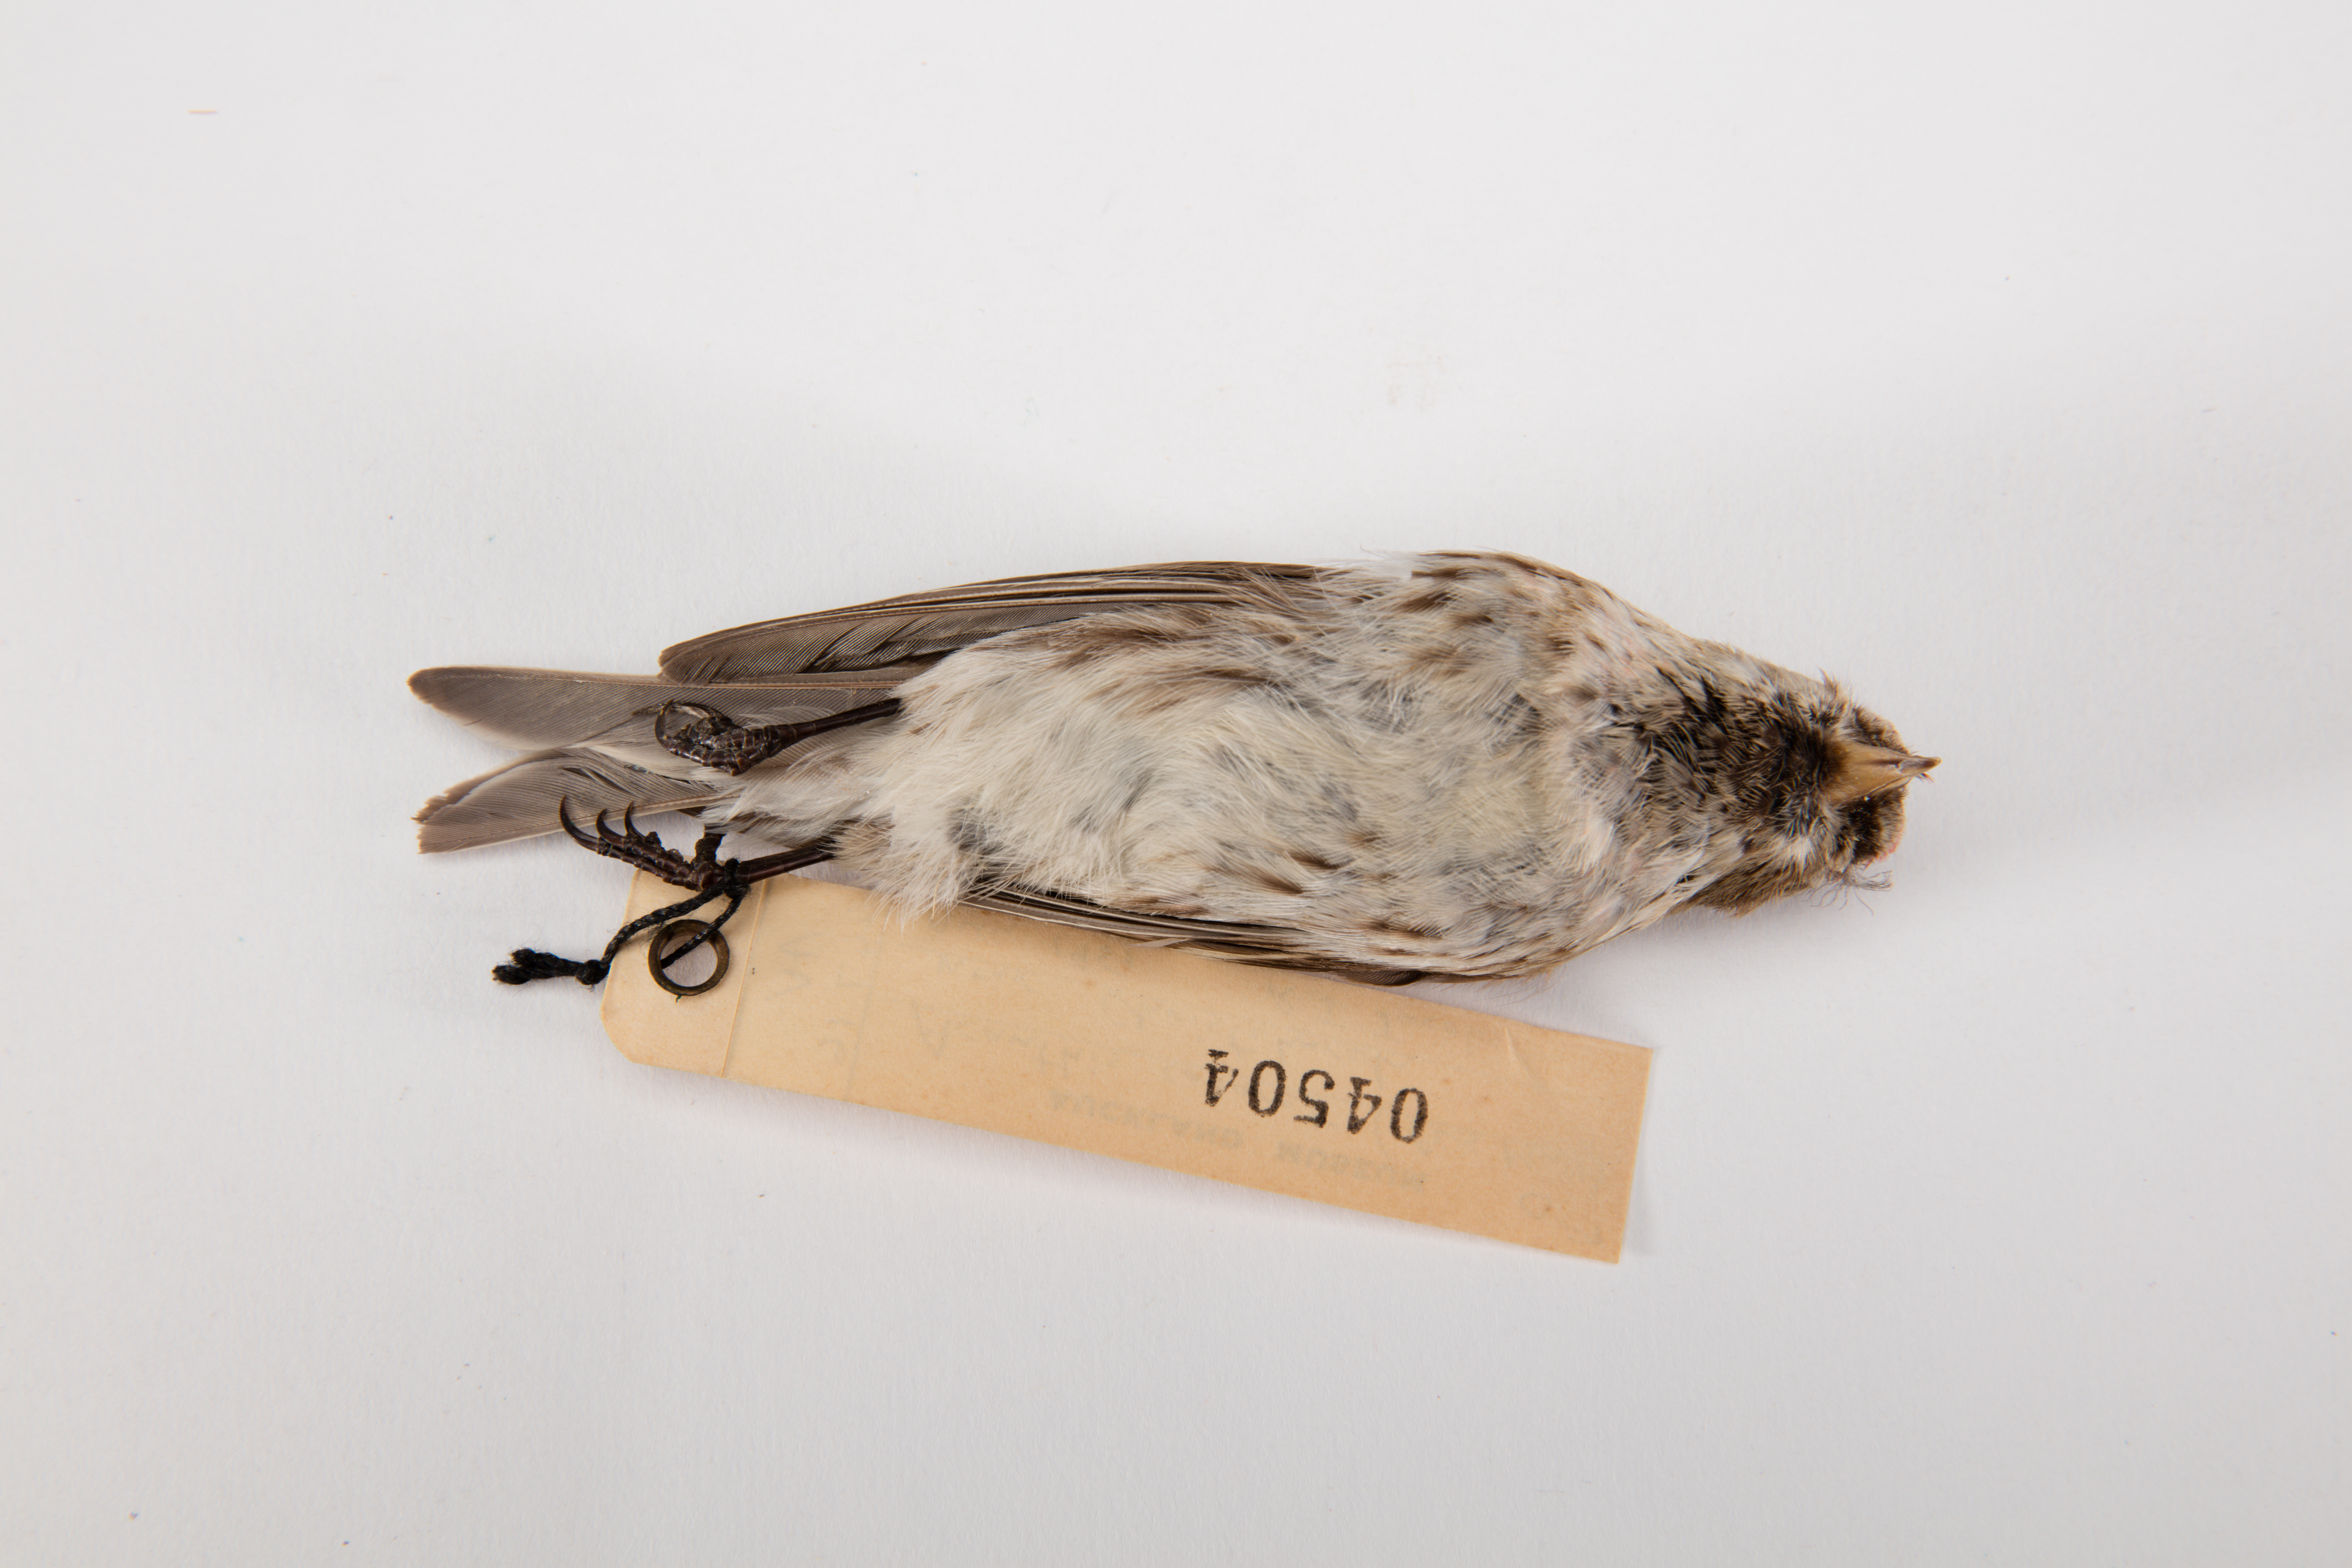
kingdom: Animalia
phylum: Chordata
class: Aves
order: Passeriformes
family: Fringillidae
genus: Acanthis
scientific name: Acanthis flammea
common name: Common redpoll
